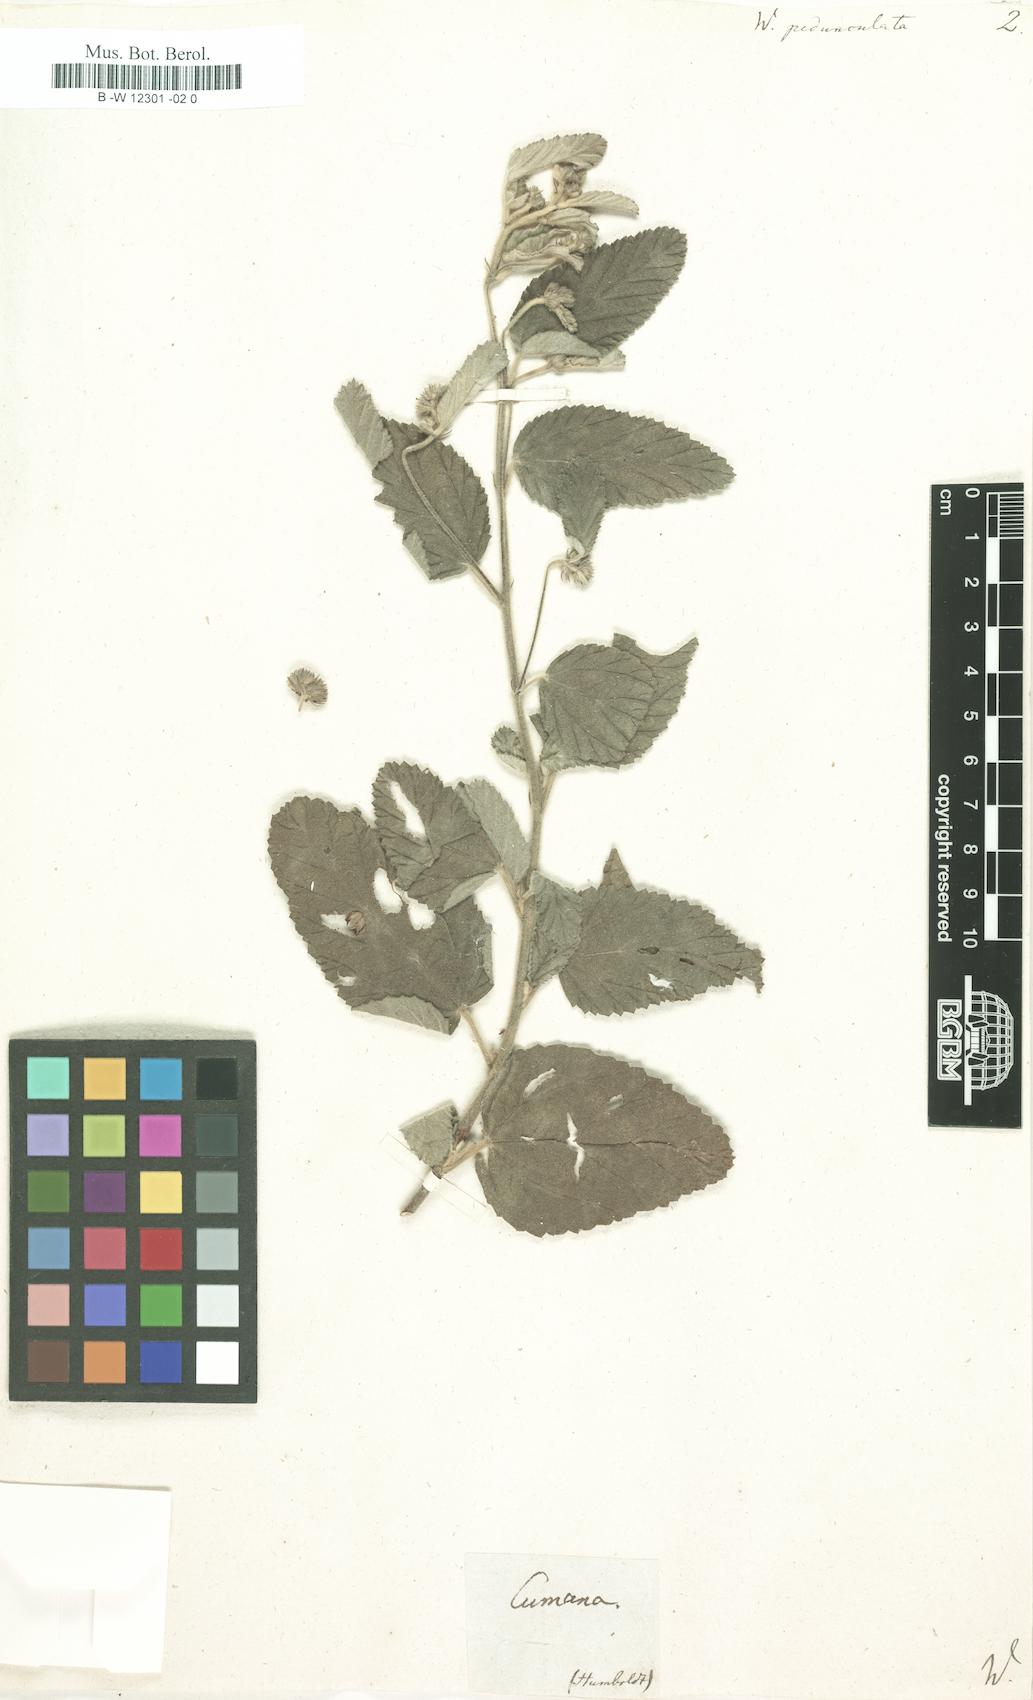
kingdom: Plantae
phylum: Tracheophyta
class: Magnoliopsida
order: Malvales
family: Malvaceae
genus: Waltheria
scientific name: Waltheria indica
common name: Leather-coat
